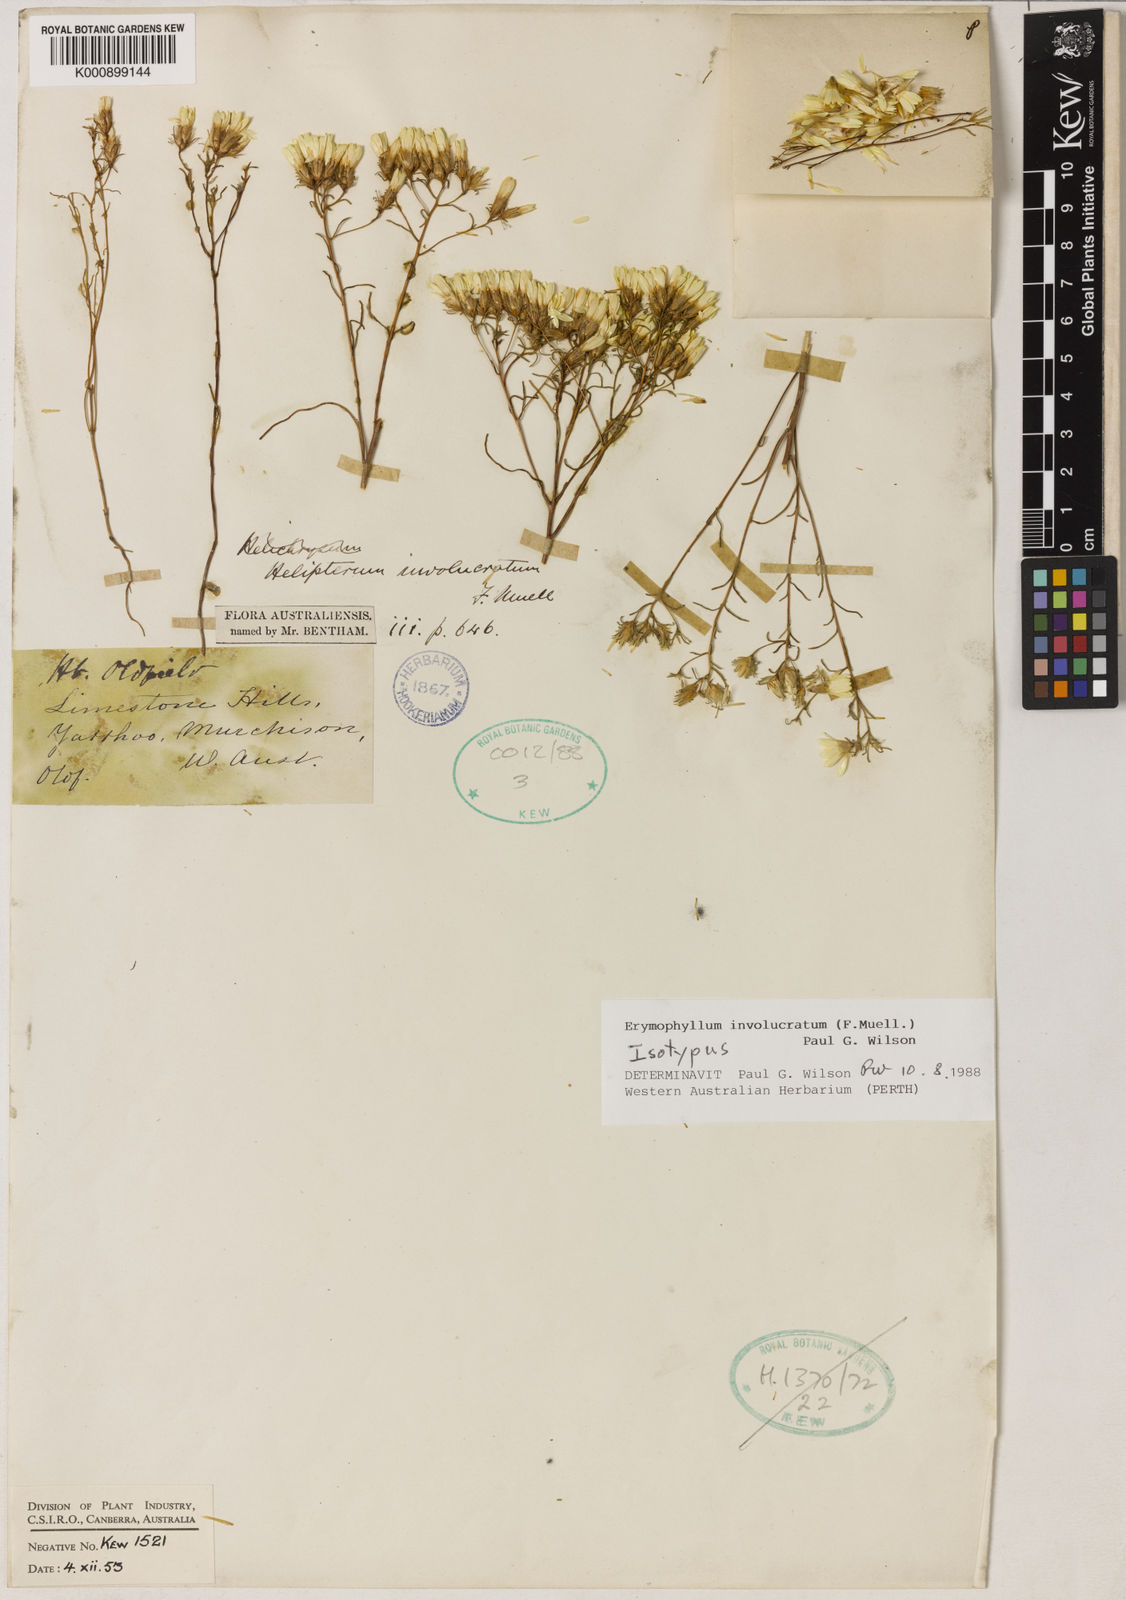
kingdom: Plantae
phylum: Tracheophyta
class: Magnoliopsida
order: Asterales
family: Asteraceae
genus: Erymophyllum
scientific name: Erymophyllum ramosum
